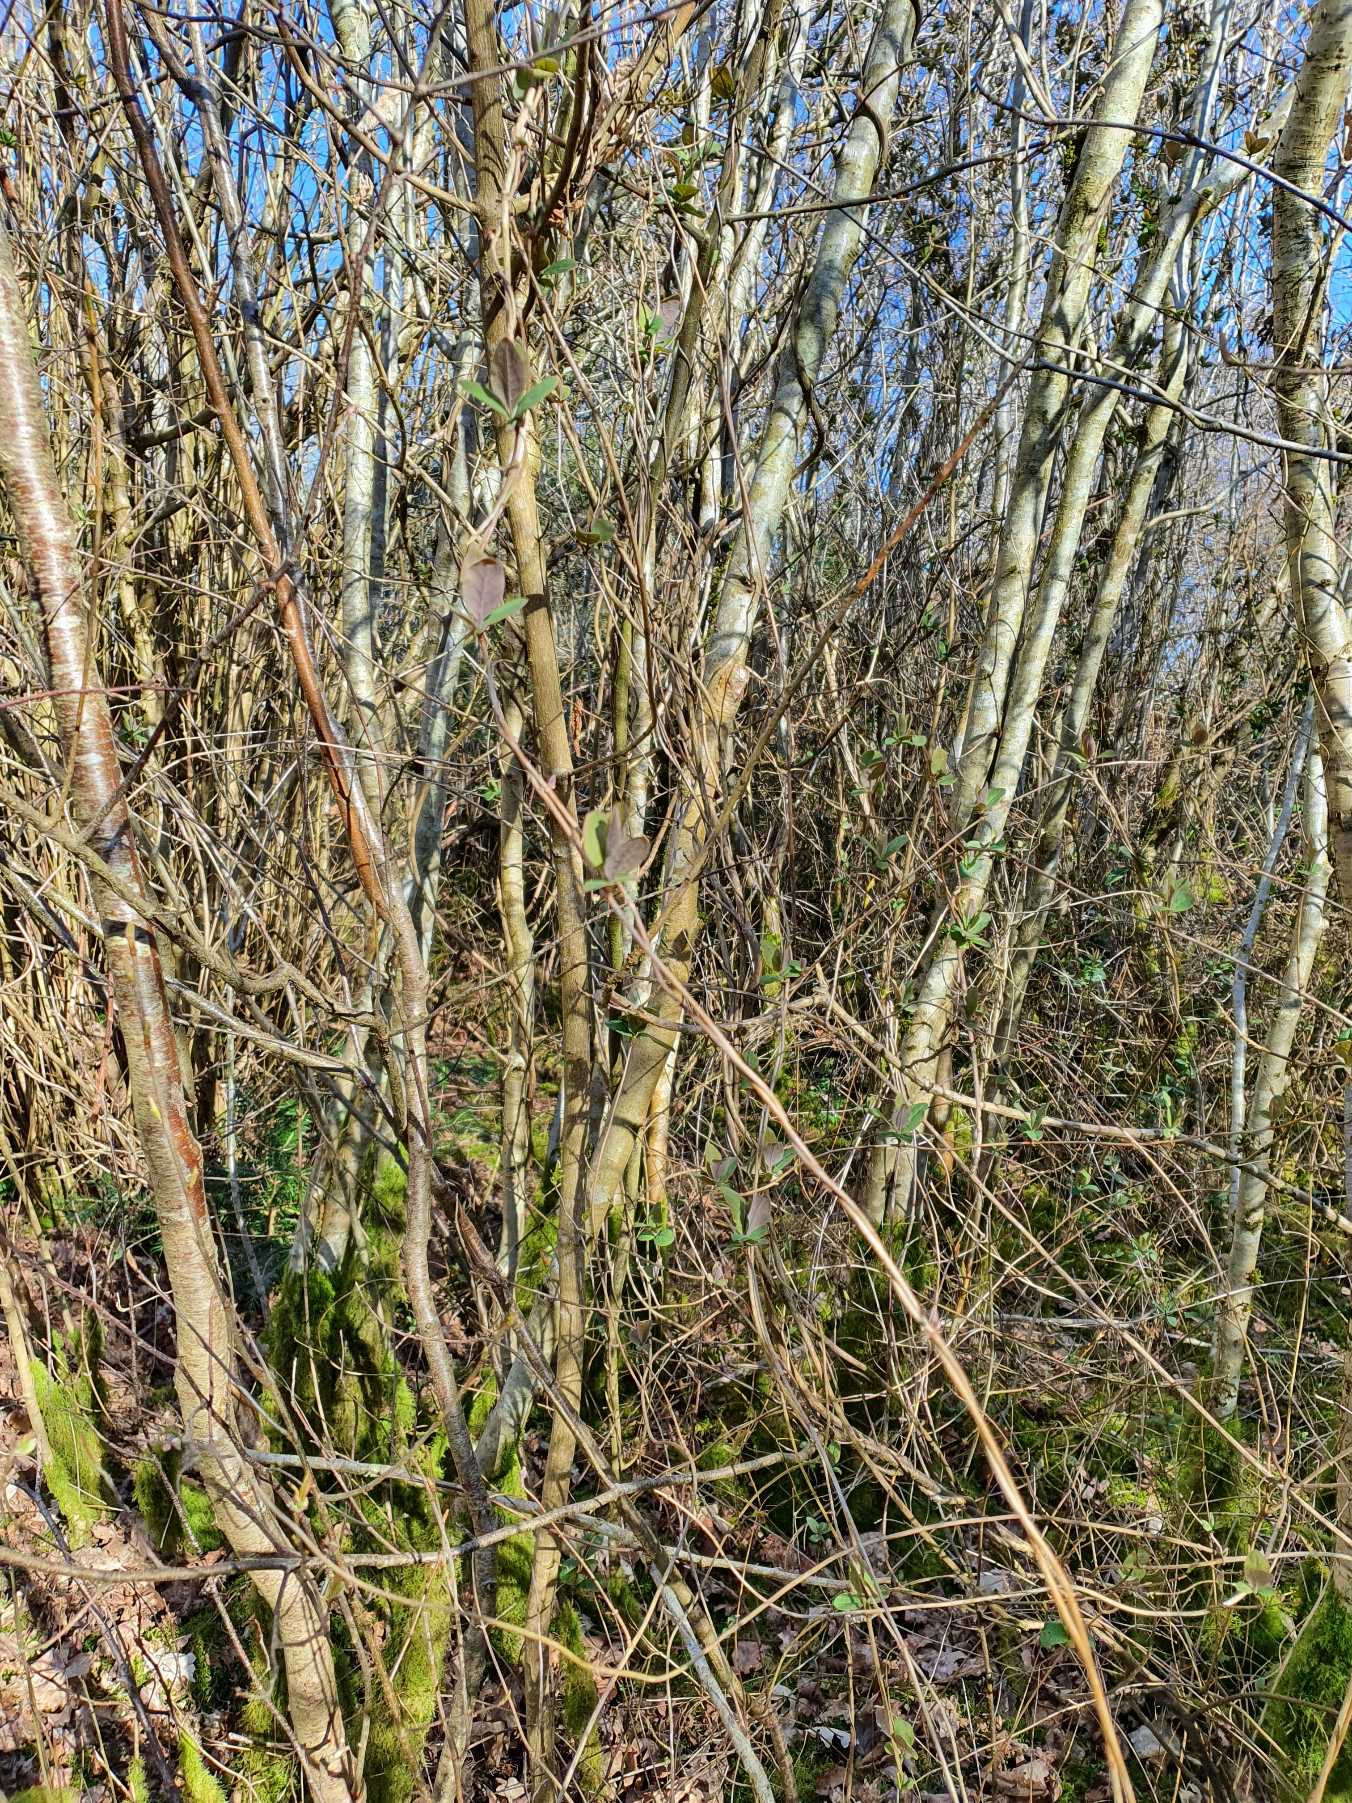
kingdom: Plantae
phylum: Tracheophyta
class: Magnoliopsida
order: Dipsacales
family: Caprifoliaceae
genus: Lonicera
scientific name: Lonicera periclymenum
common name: Almindelig gedeblad
